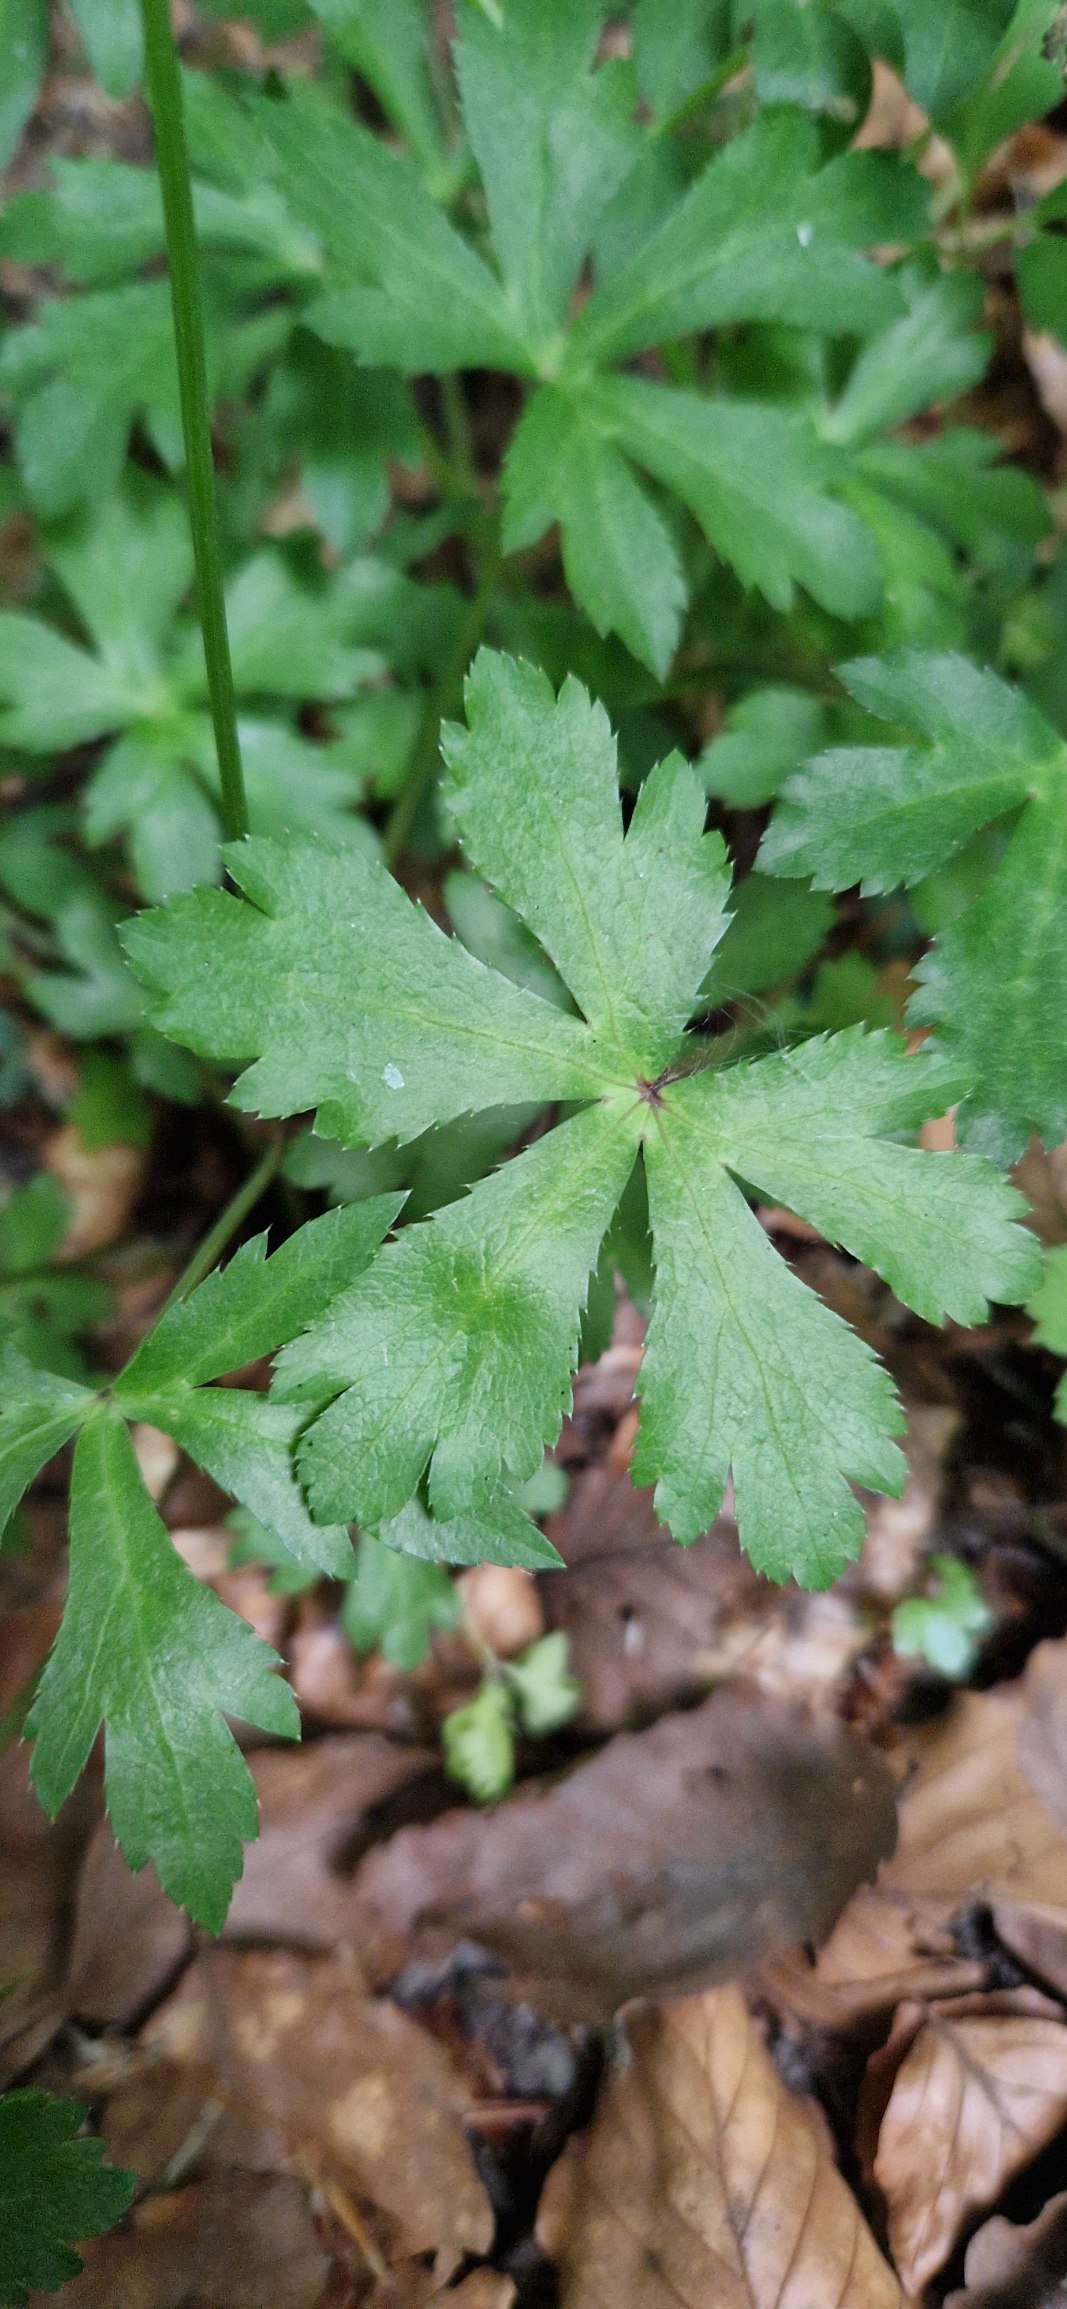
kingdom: Plantae
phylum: Tracheophyta
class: Magnoliopsida
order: Apiales
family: Apiaceae
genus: Sanicula
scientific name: Sanicula europaea
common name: Sanikel
